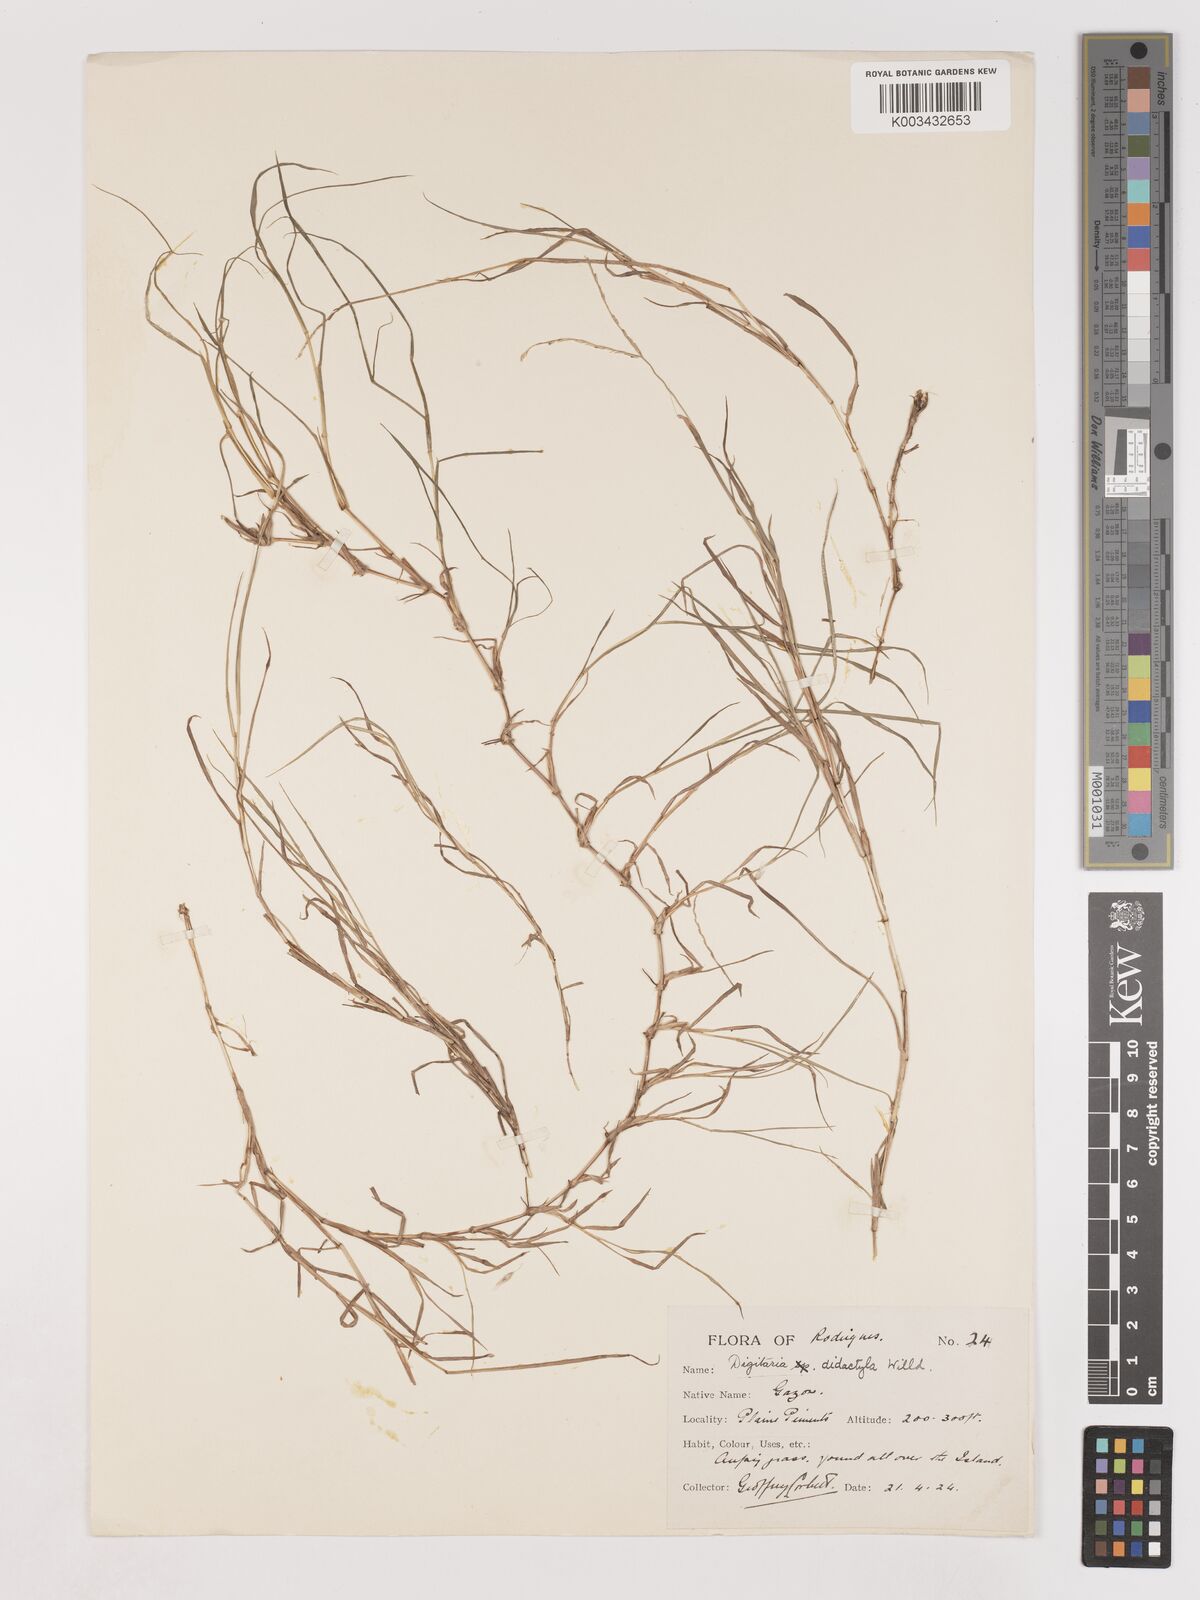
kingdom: Plantae
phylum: Tracheophyta
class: Liliopsida
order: Poales
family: Poaceae
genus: Digitaria
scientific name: Digitaria didactyla
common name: Blue couch
